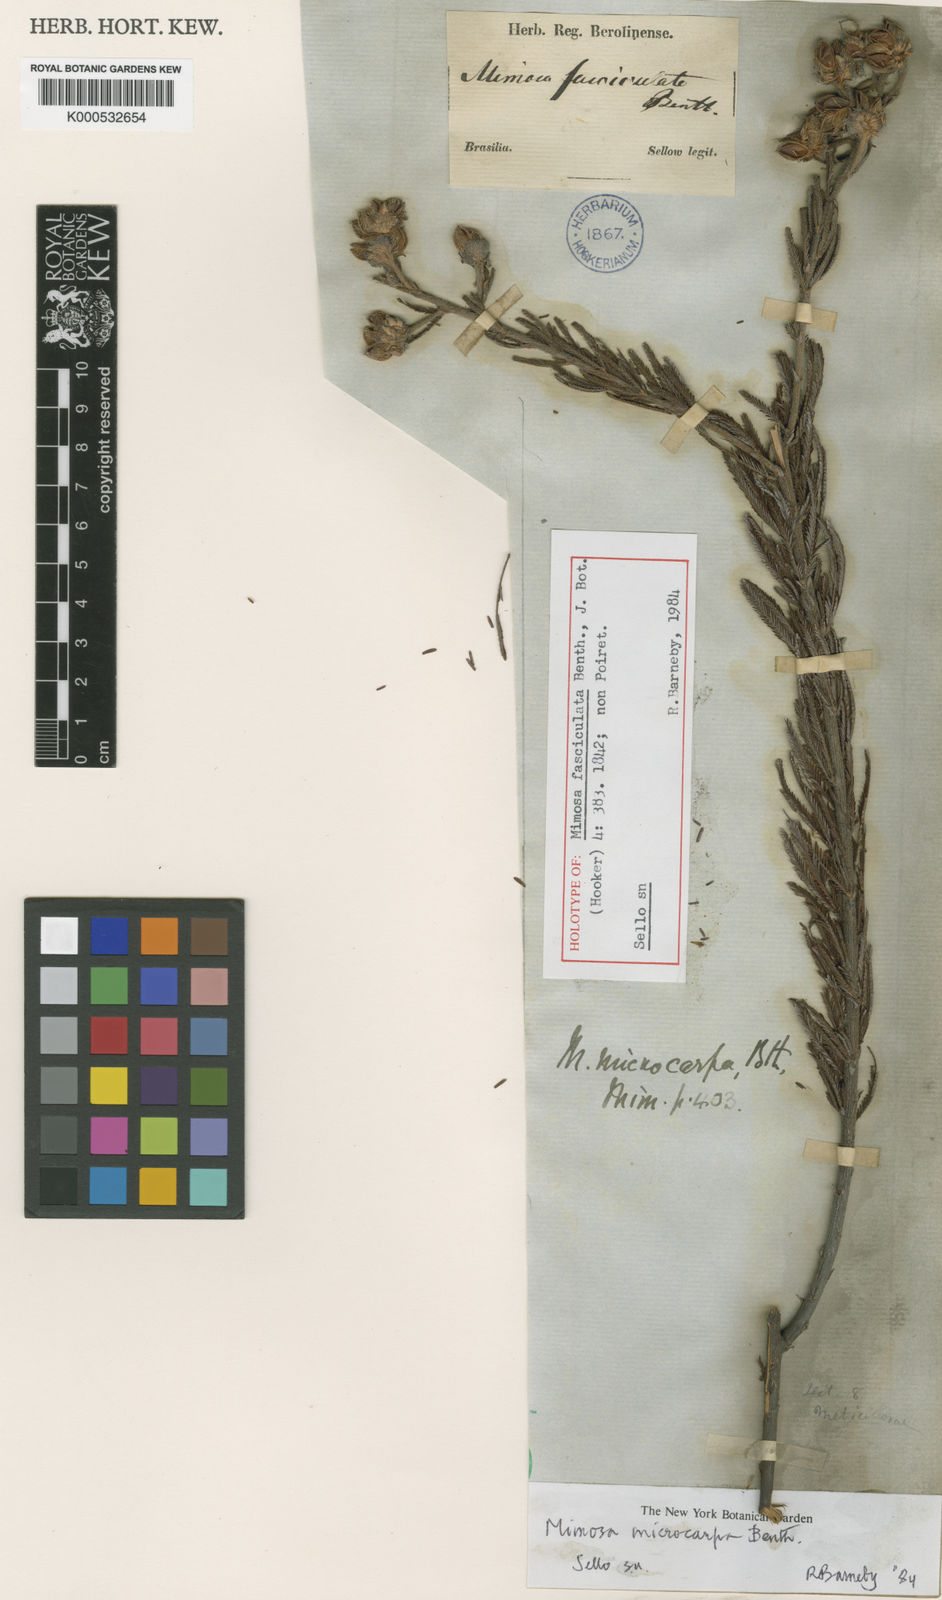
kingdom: Plantae
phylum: Tracheophyta
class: Magnoliopsida
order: Fabales
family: Fabaceae
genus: Mimosa
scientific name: Mimosa microcarpa
